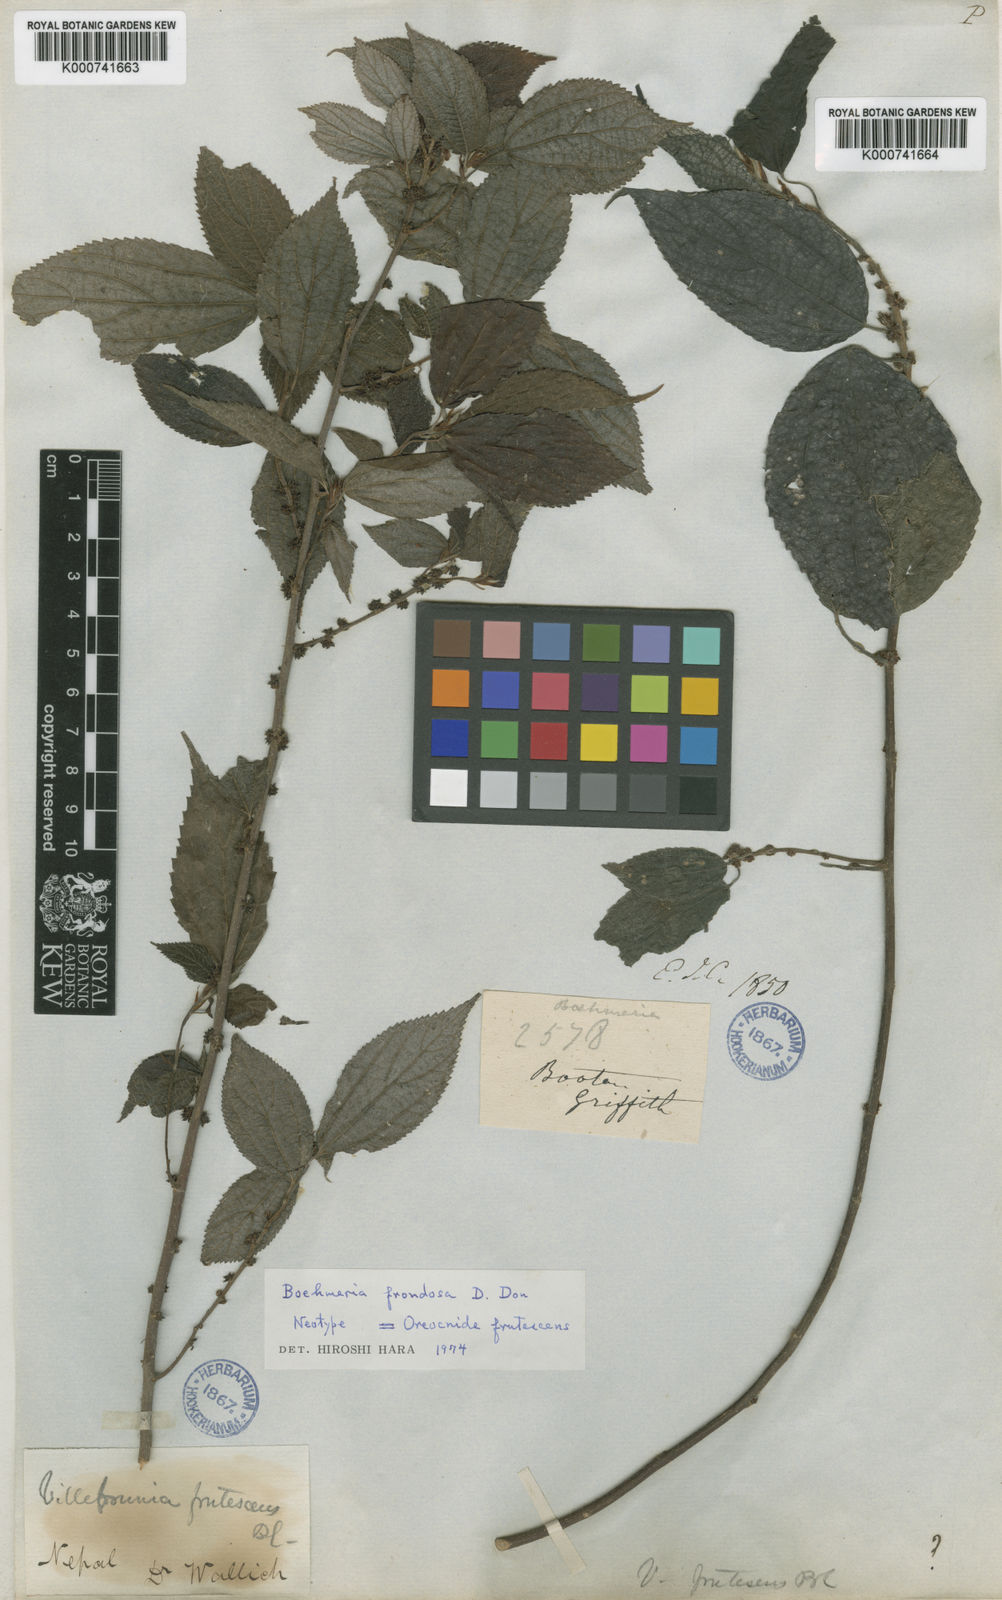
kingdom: Plantae
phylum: Tracheophyta
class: Magnoliopsida
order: Rosales
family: Urticaceae
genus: Oreocnide
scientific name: Oreocnide frutescens
